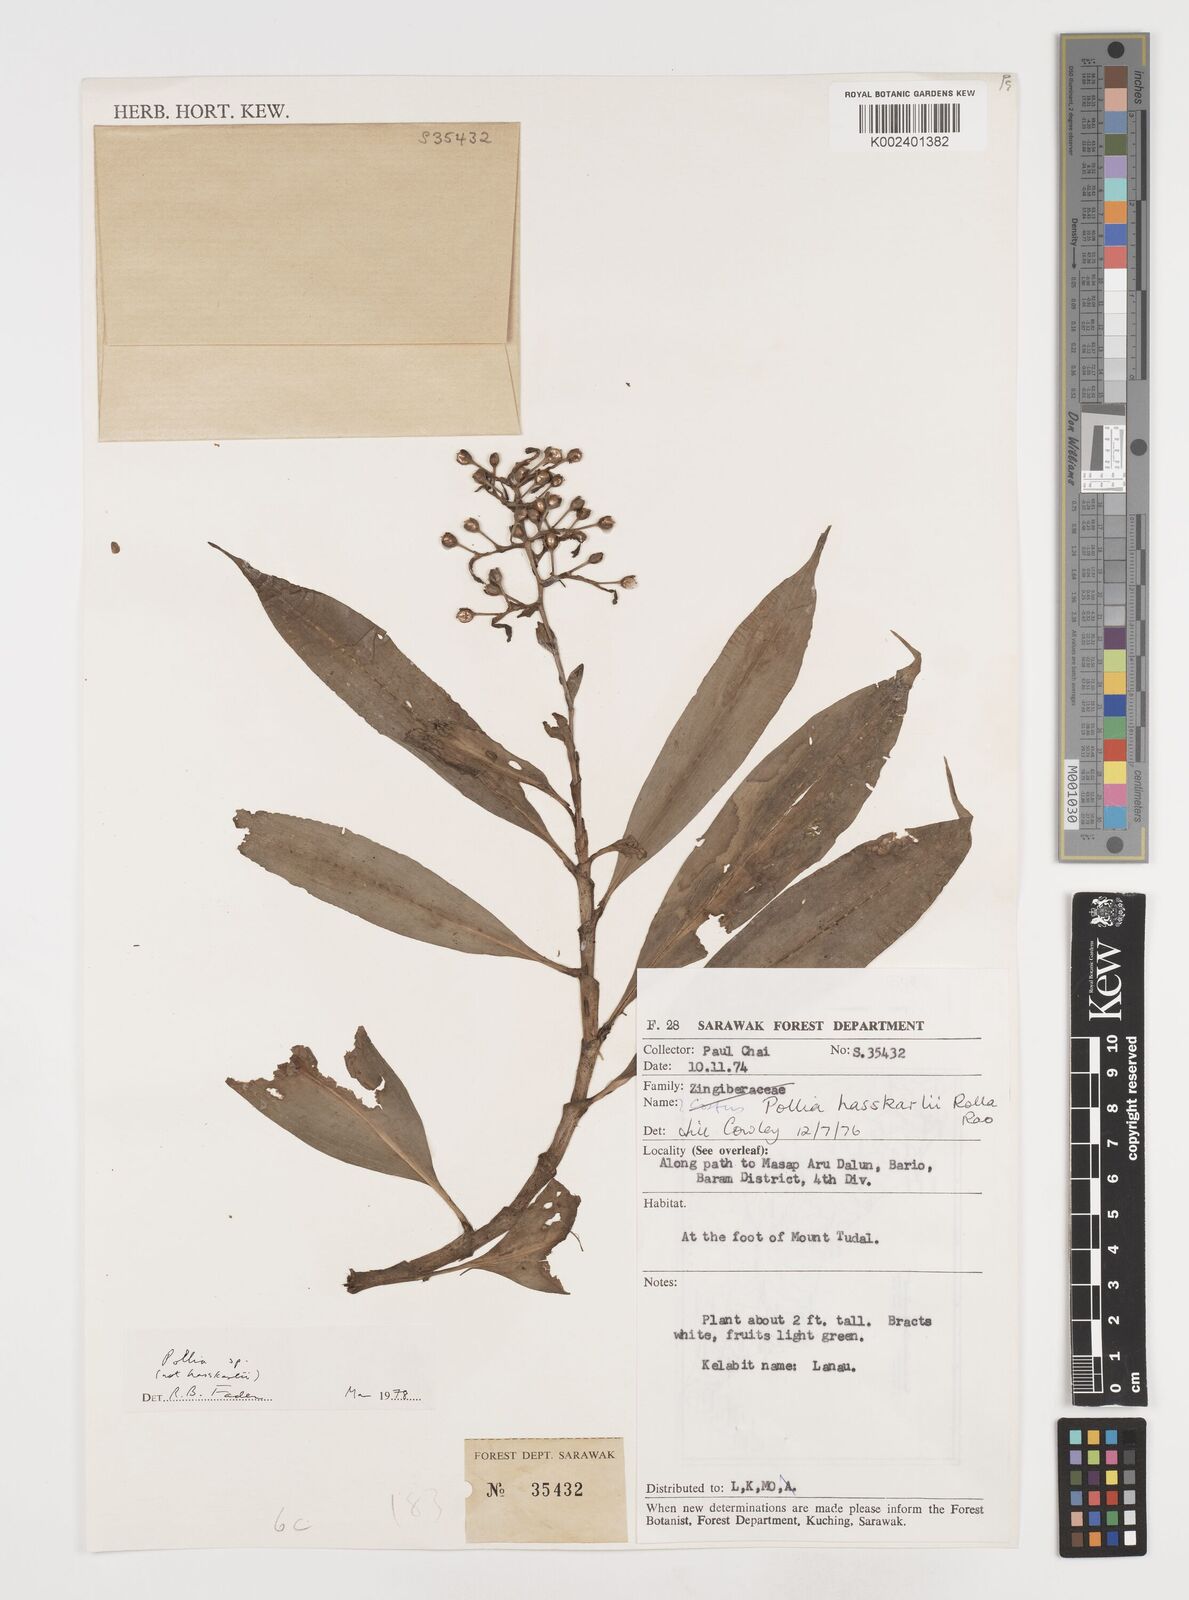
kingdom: Plantae
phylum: Tracheophyta
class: Liliopsida
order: Commelinales
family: Commelinaceae
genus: Pollia
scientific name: Pollia
